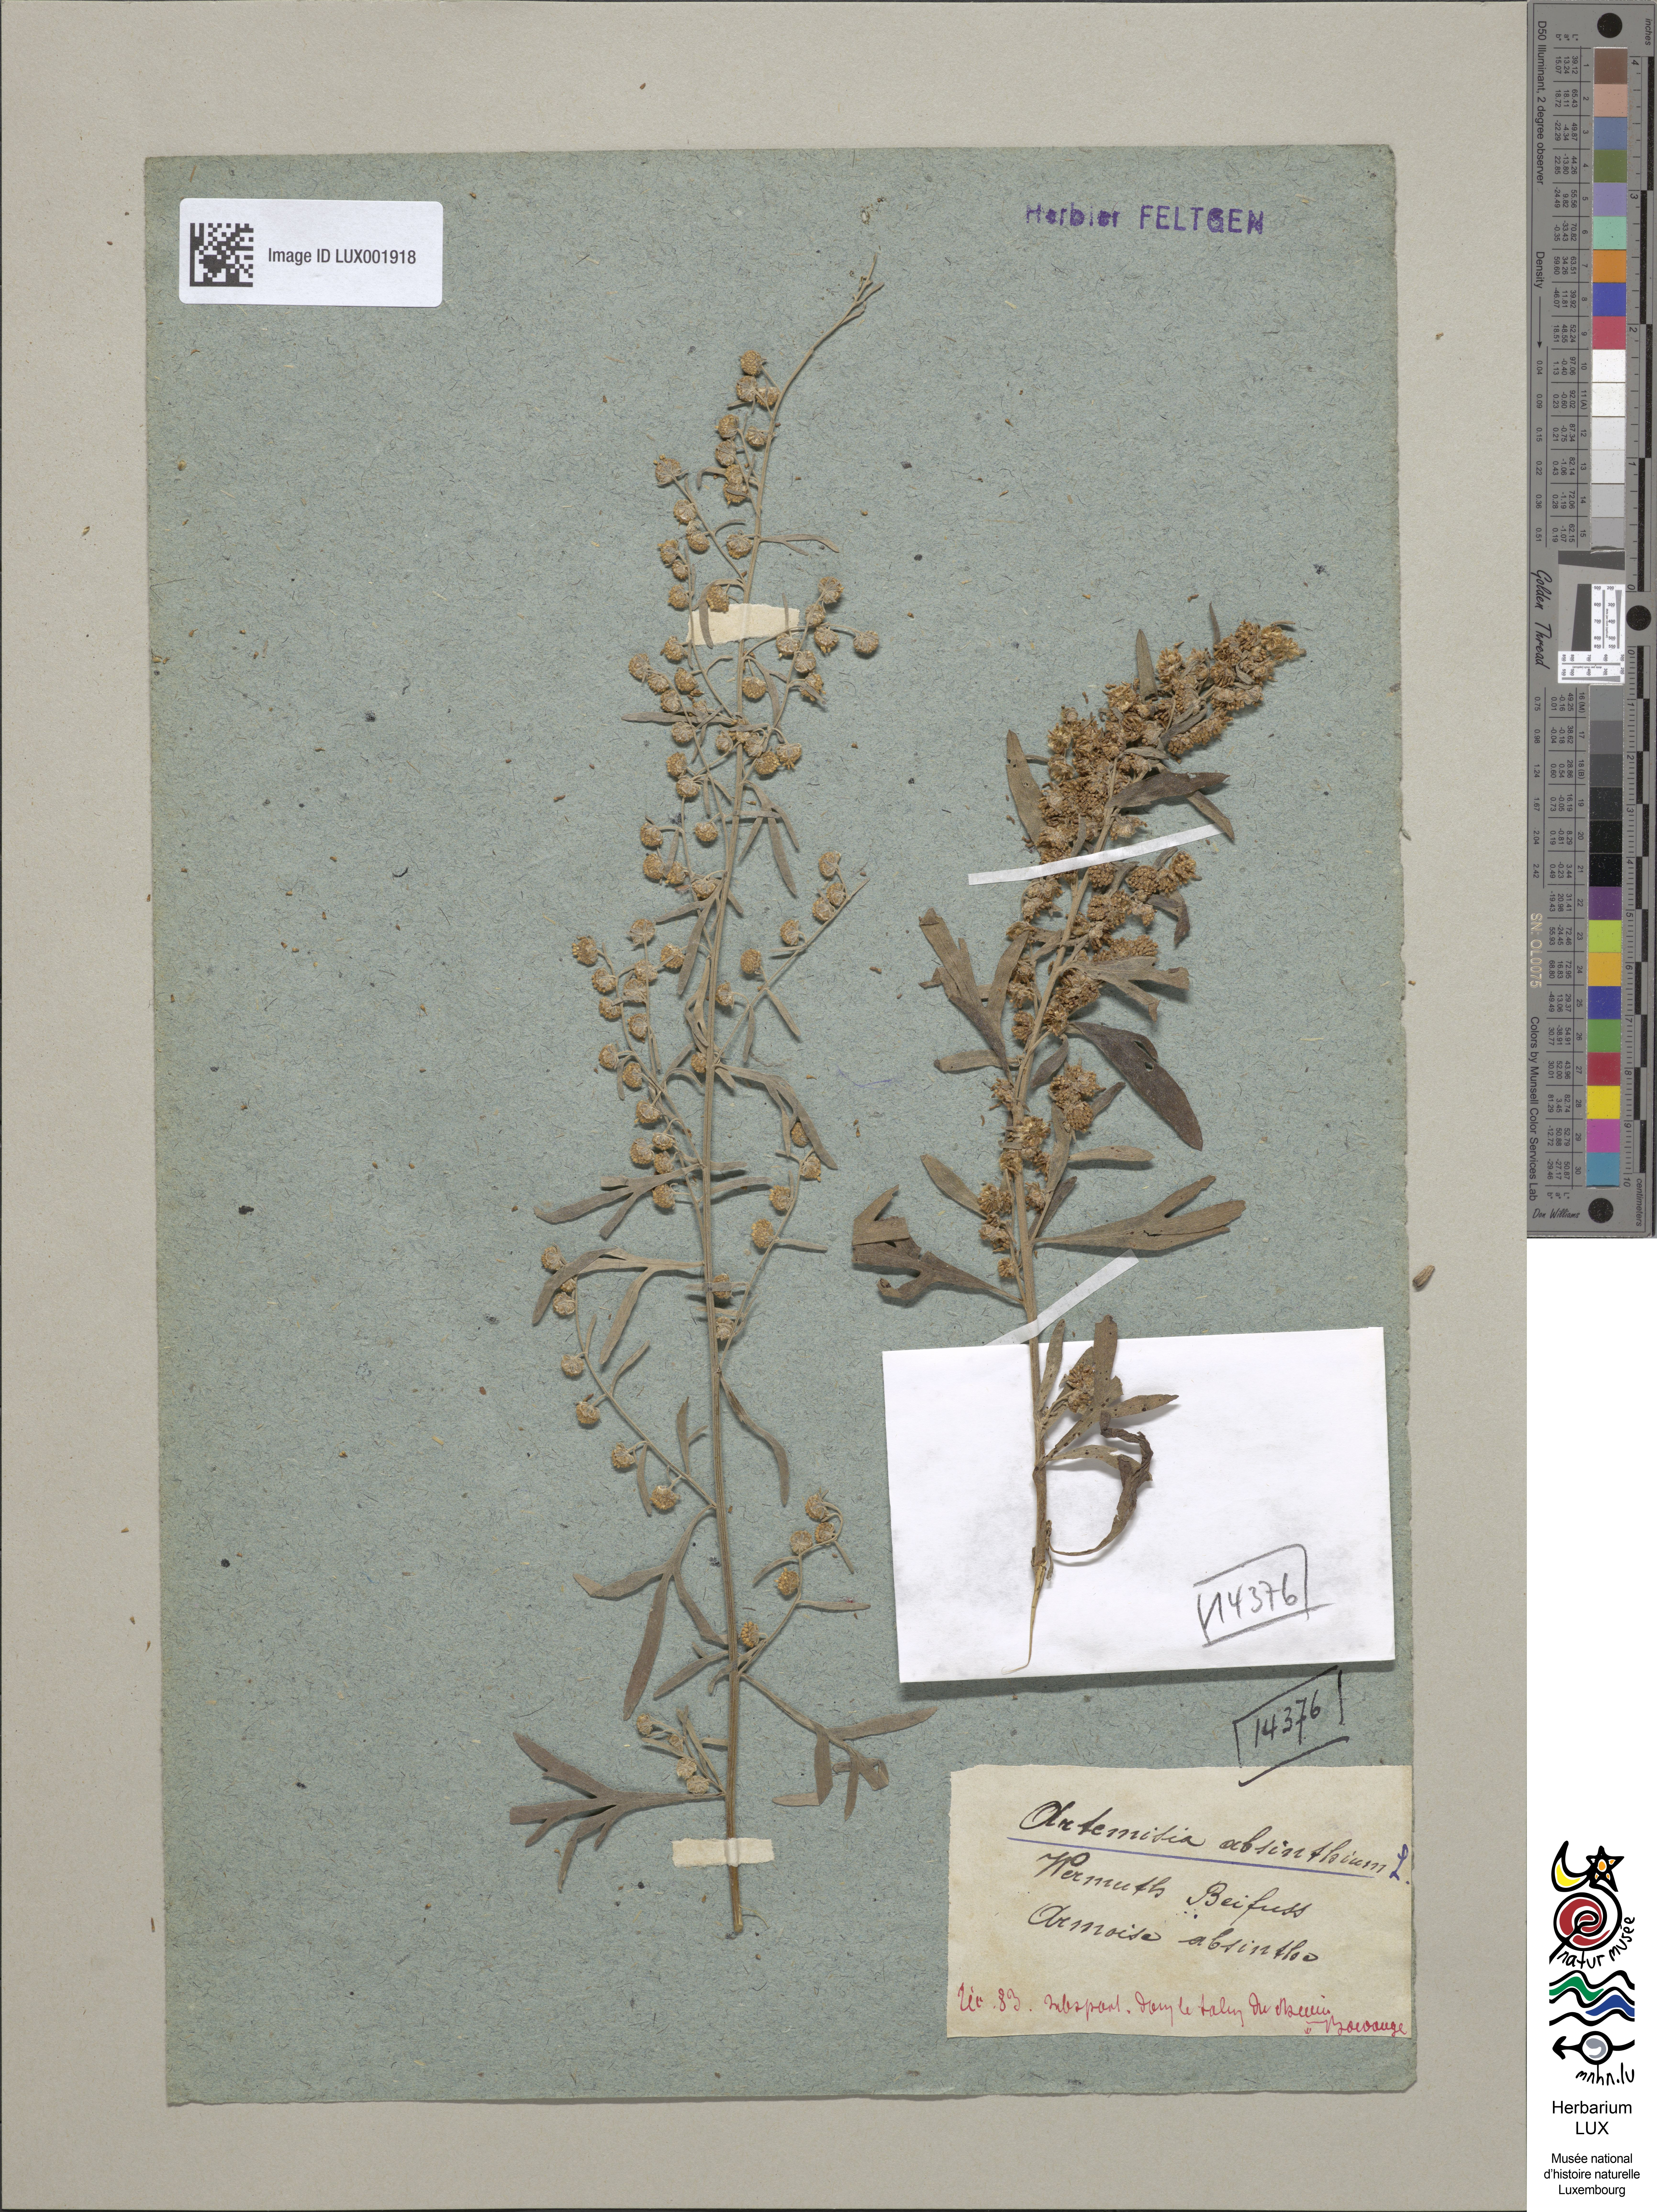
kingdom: Plantae
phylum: Tracheophyta
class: Magnoliopsida
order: Asterales
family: Asteraceae
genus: Artemisia
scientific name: Artemisia absinthium
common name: Wormwood
